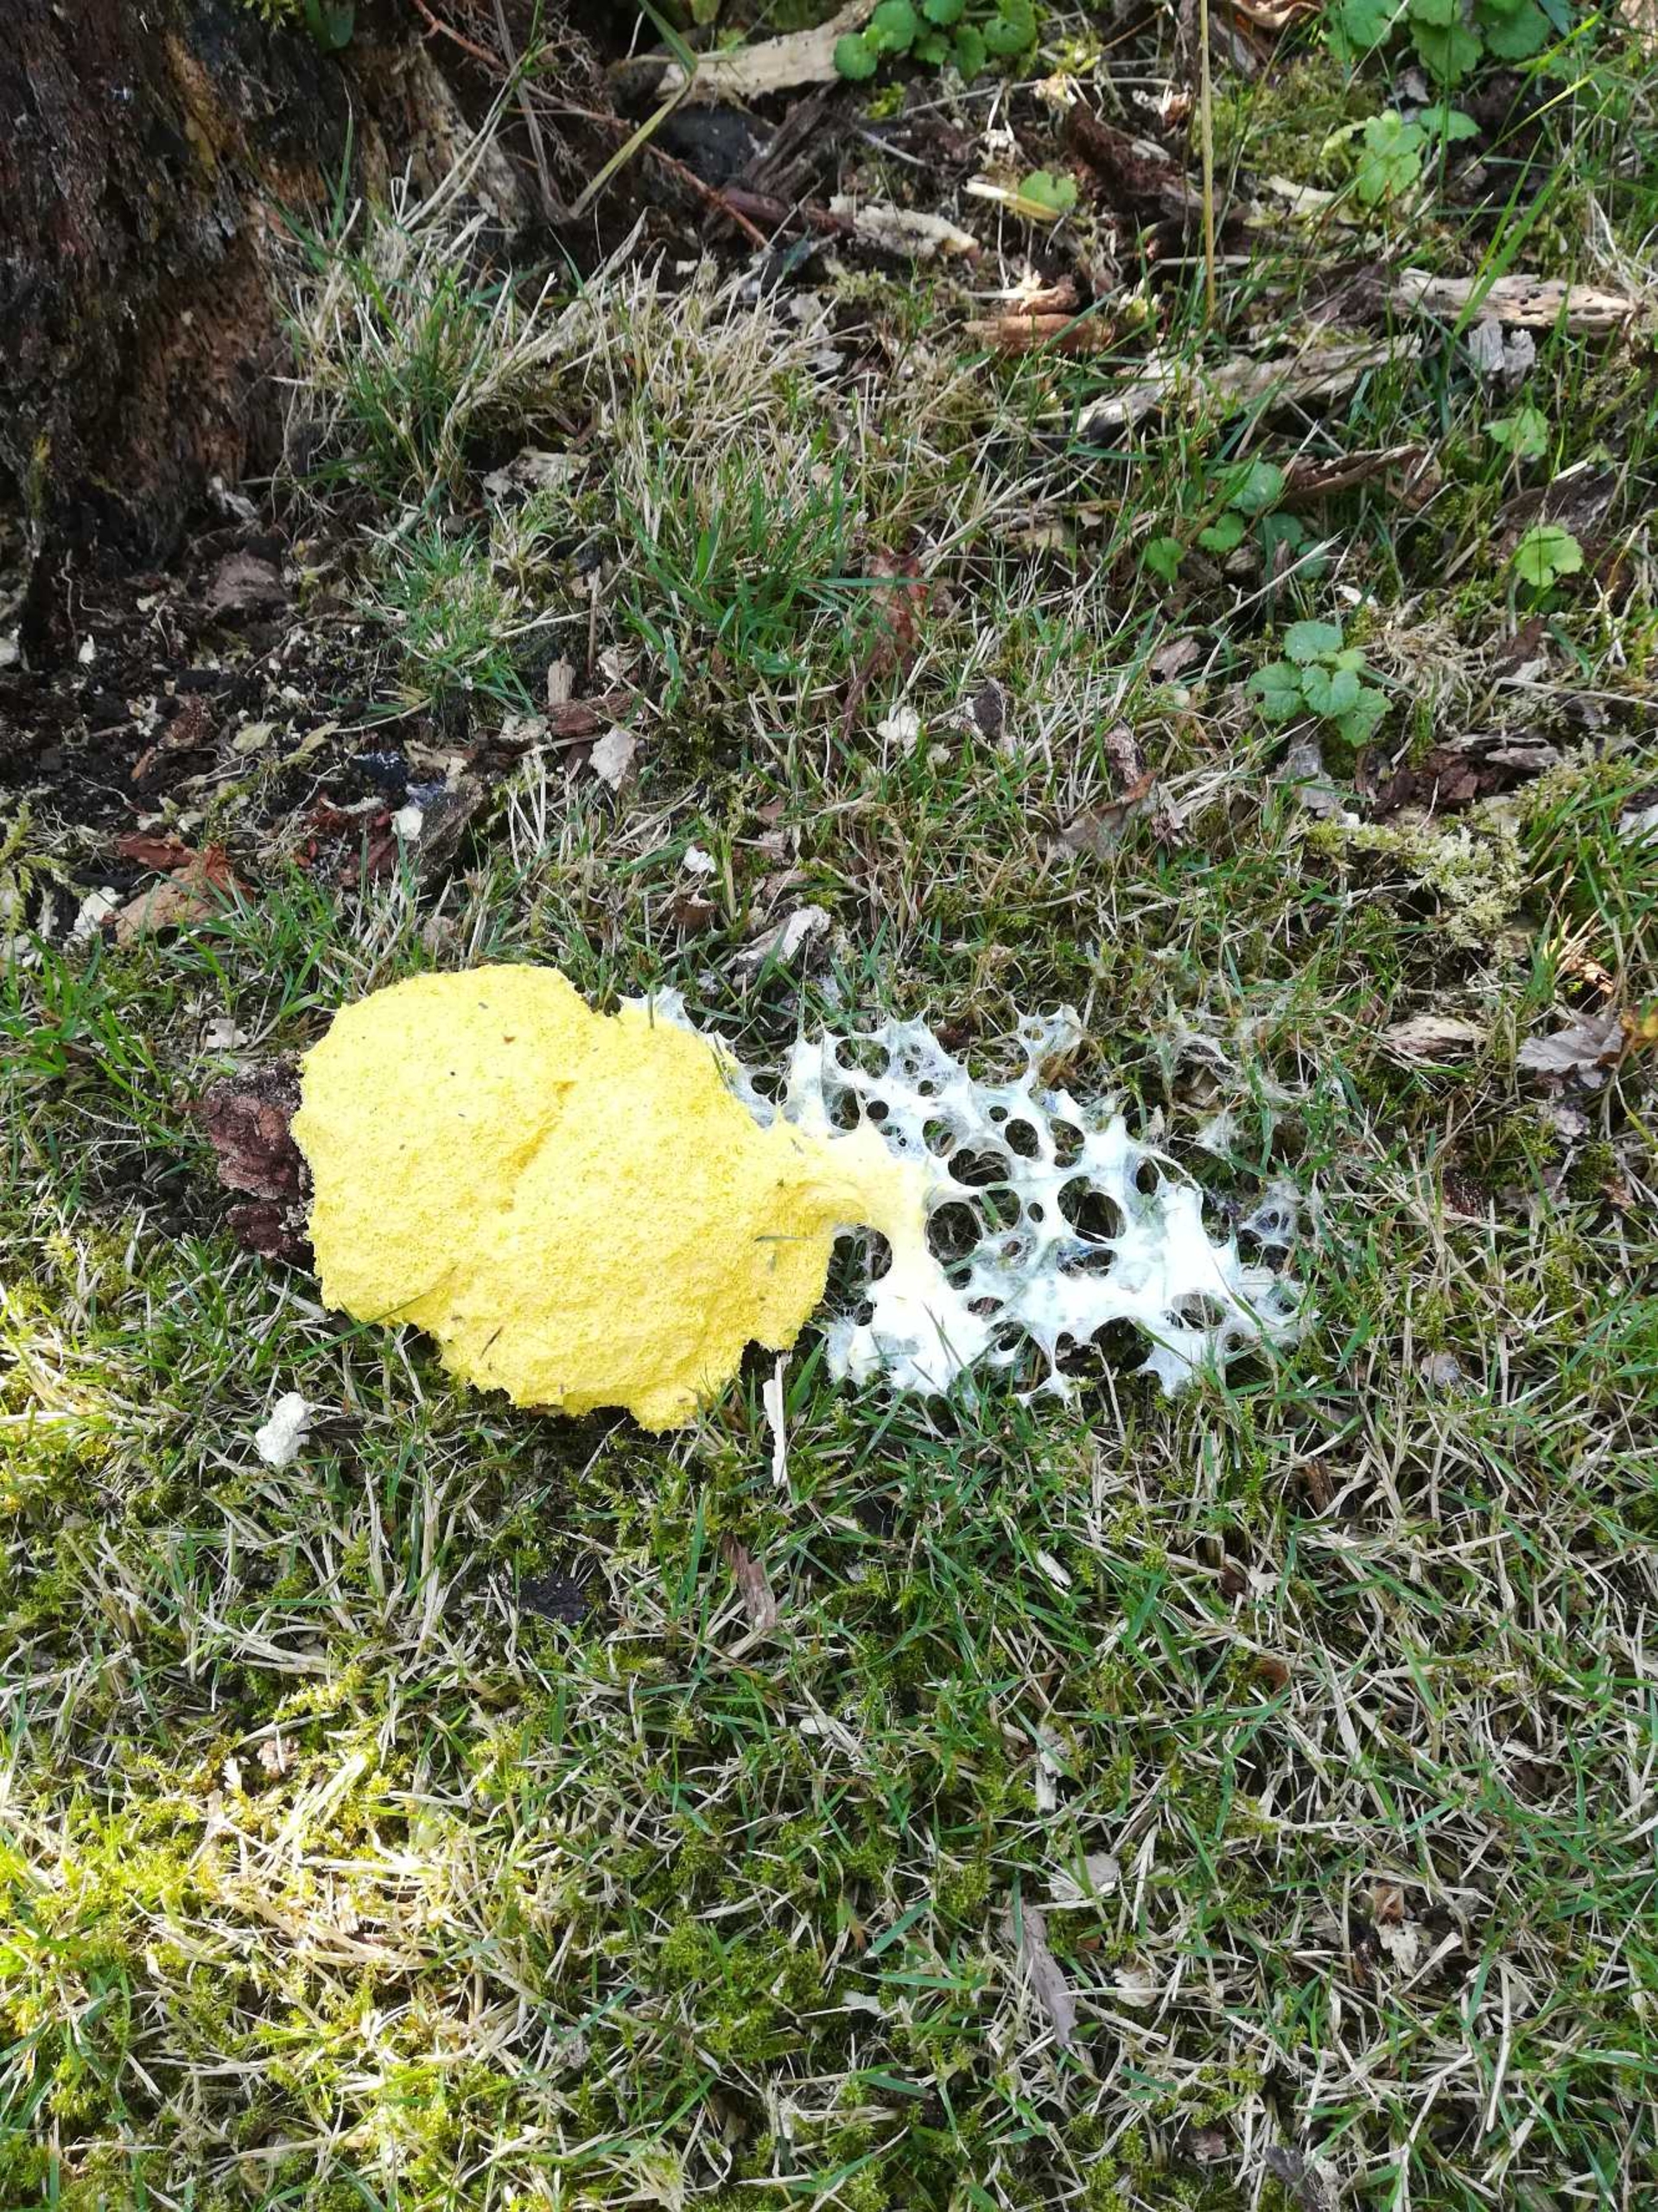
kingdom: Protozoa
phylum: Mycetozoa
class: Myxomycetes
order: Physarales
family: Physaraceae
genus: Fuligo
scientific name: Fuligo septica
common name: Gul troldsmør
